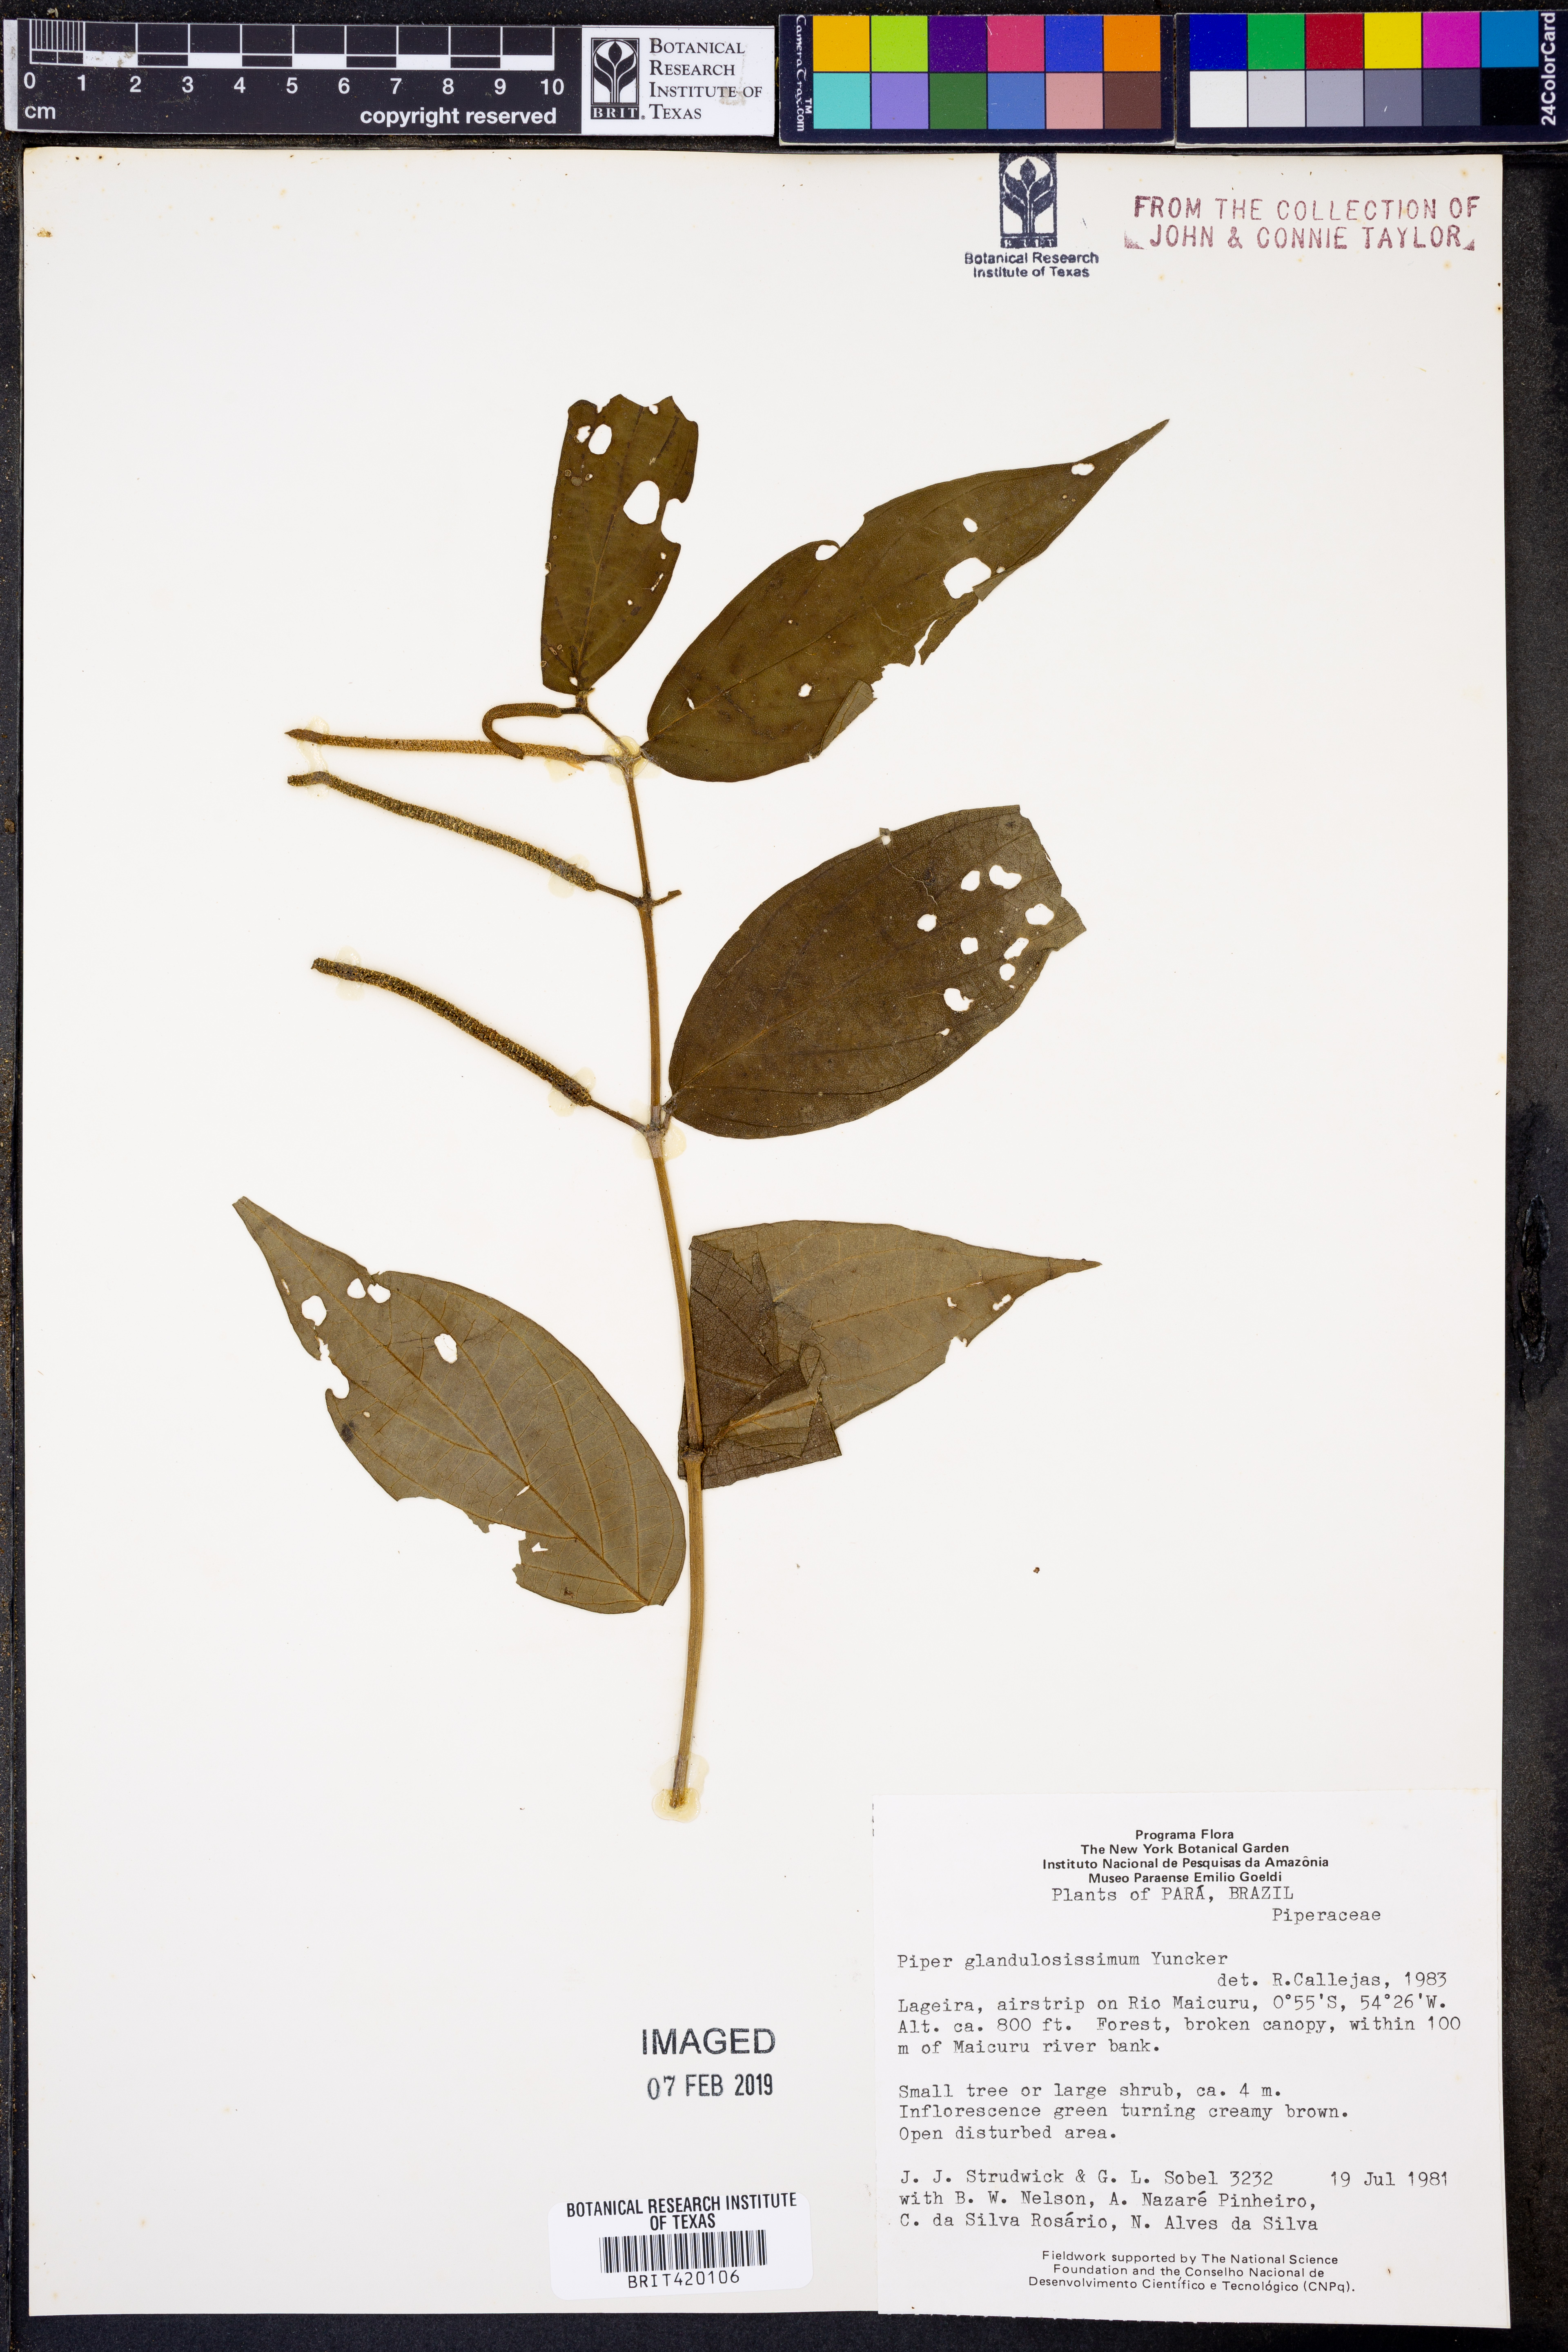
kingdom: Plantae
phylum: Tracheophyta
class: Magnoliopsida
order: Piperales
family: Piperaceae
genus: Piper
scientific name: Piper glandulosissimum
